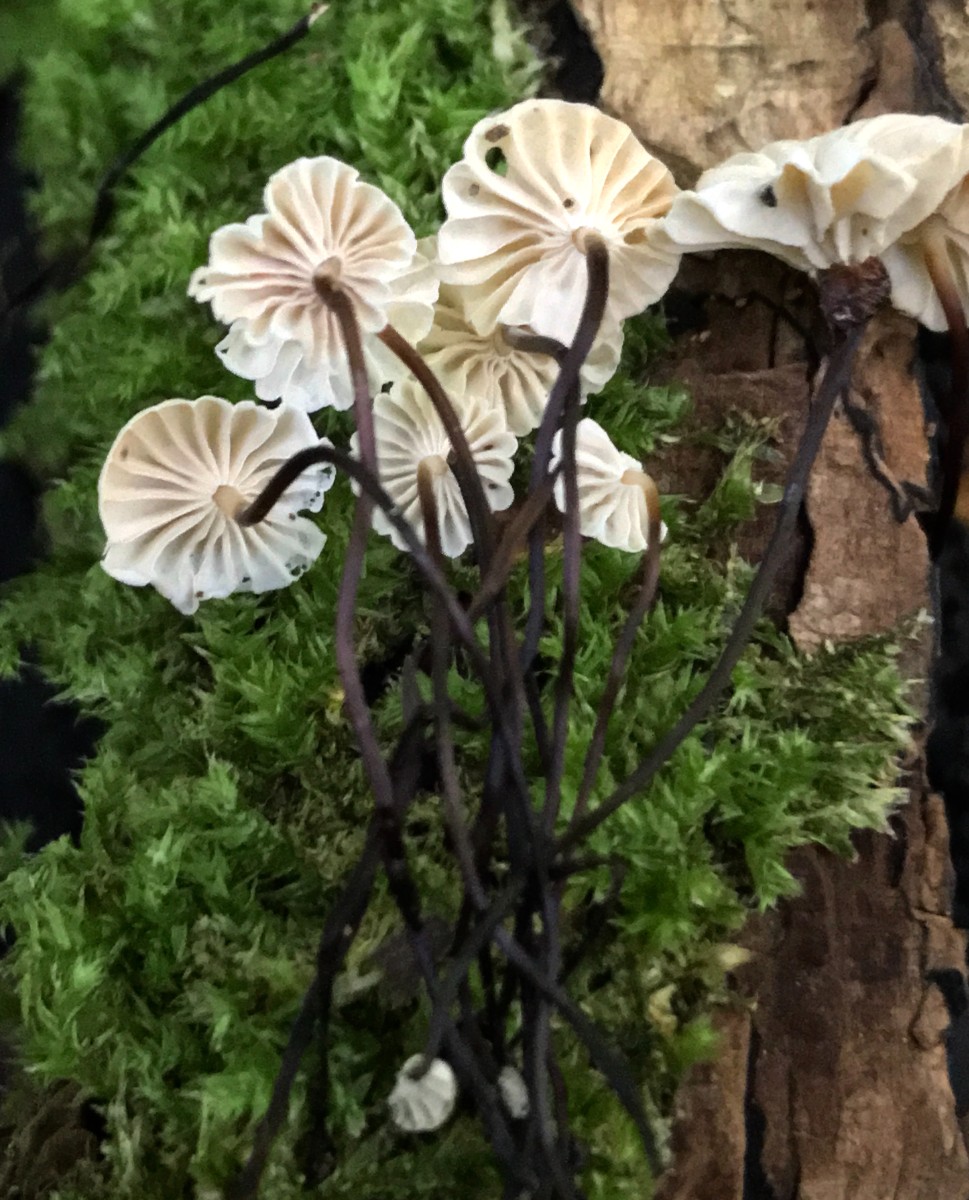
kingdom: Fungi
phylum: Basidiomycota
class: Agaricomycetes
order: Agaricales
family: Marasmiaceae
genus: Marasmius
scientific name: Marasmius rotula
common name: hjul-bruskhat
